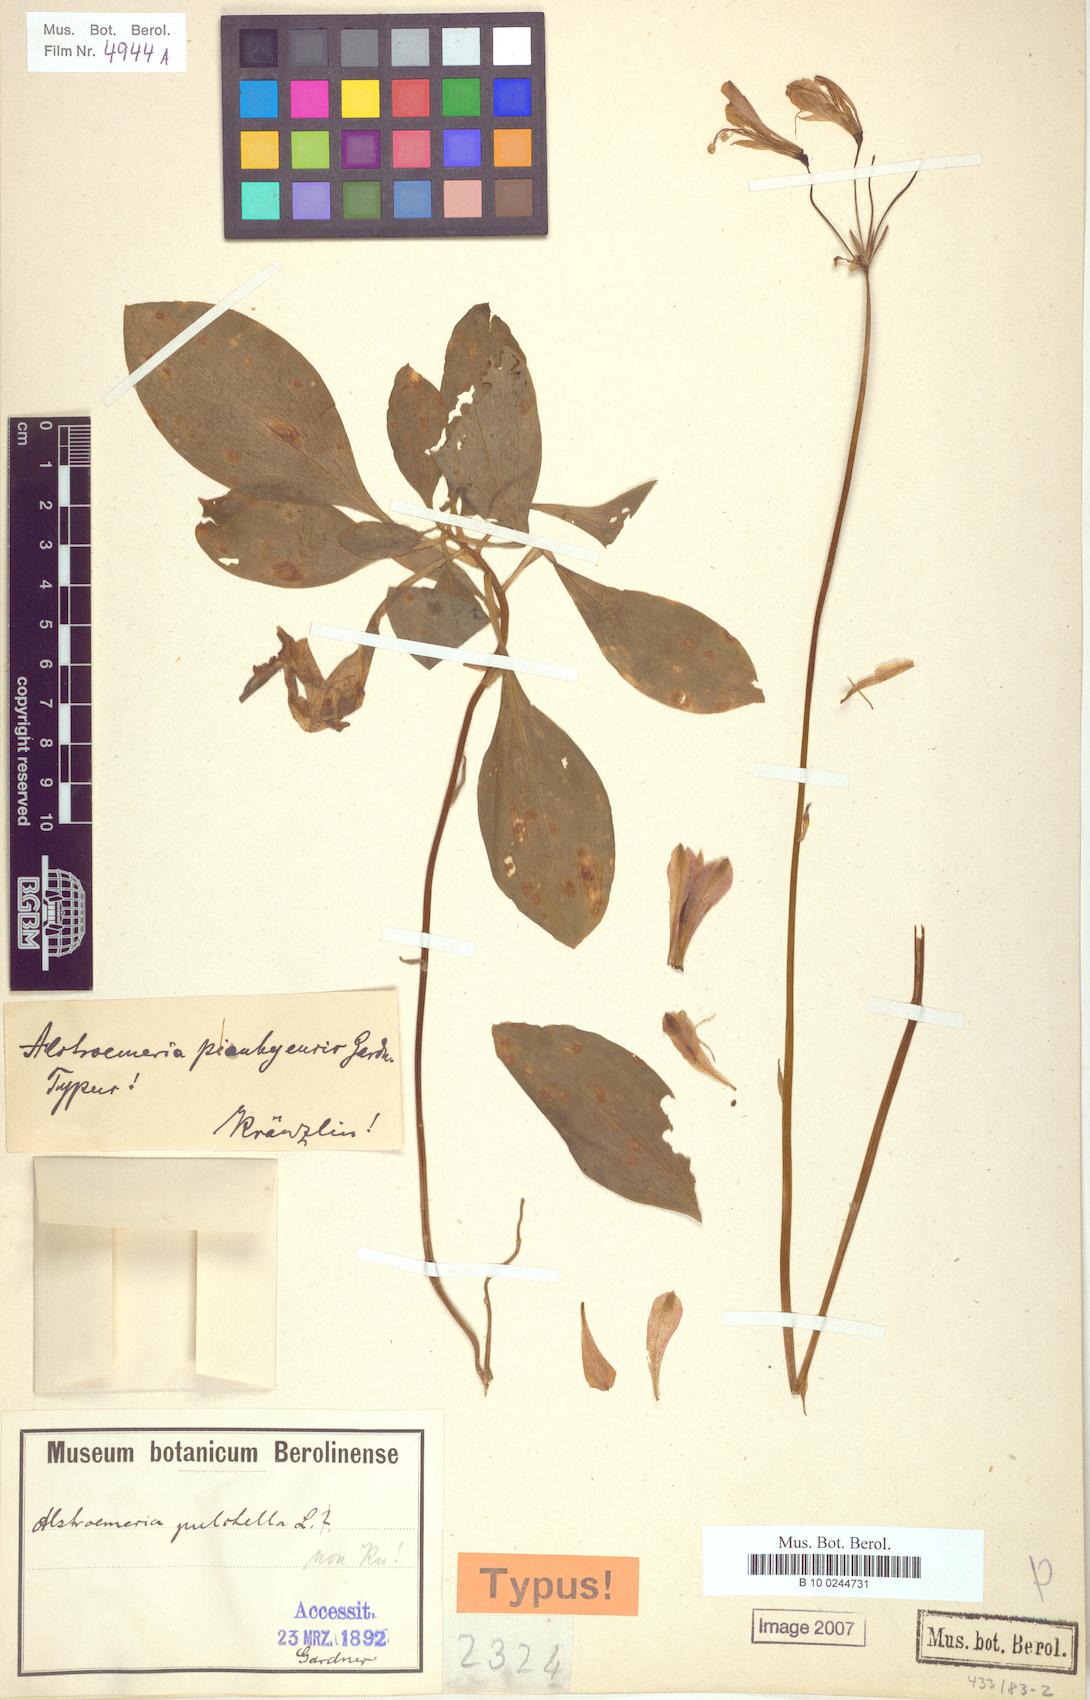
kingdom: Plantae
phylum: Tracheophyta
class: Liliopsida
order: Liliales
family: Alstroemeriaceae
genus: Alstroemeria
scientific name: Alstroemeria
